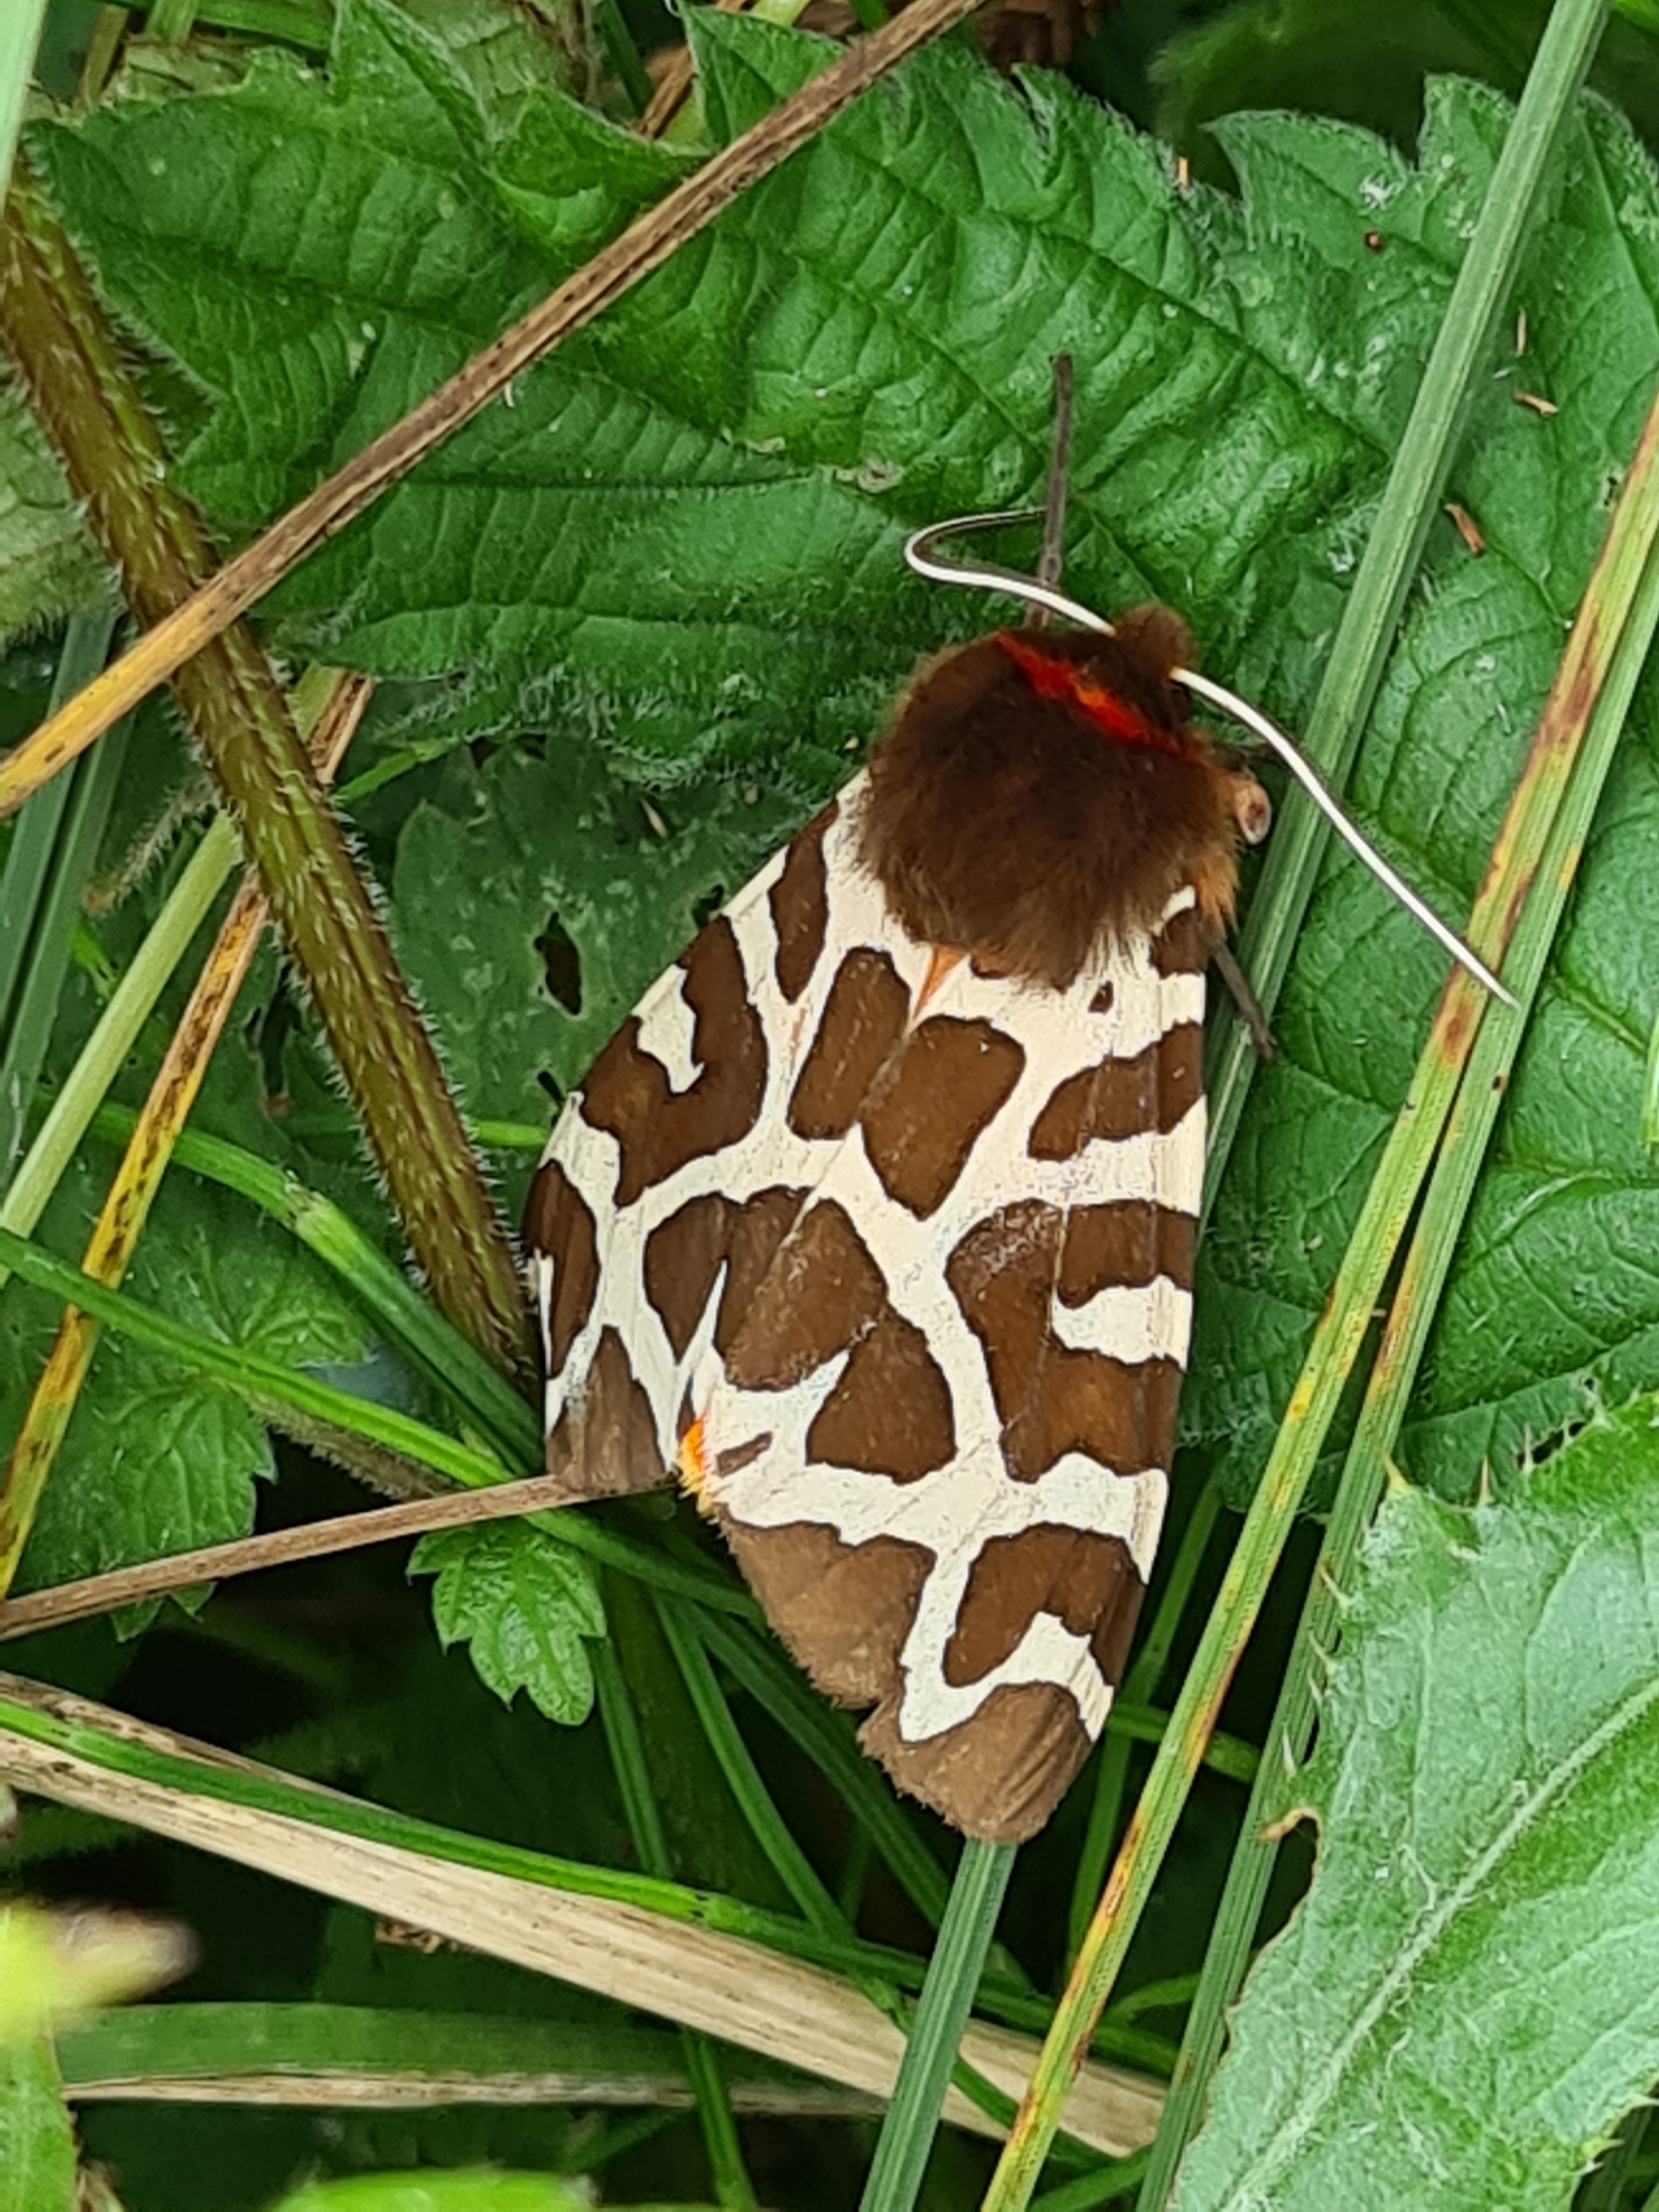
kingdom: Animalia
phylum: Arthropoda
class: Insecta
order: Lepidoptera
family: Erebidae
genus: Arctia
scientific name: Arctia caja
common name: Brun bjørn
